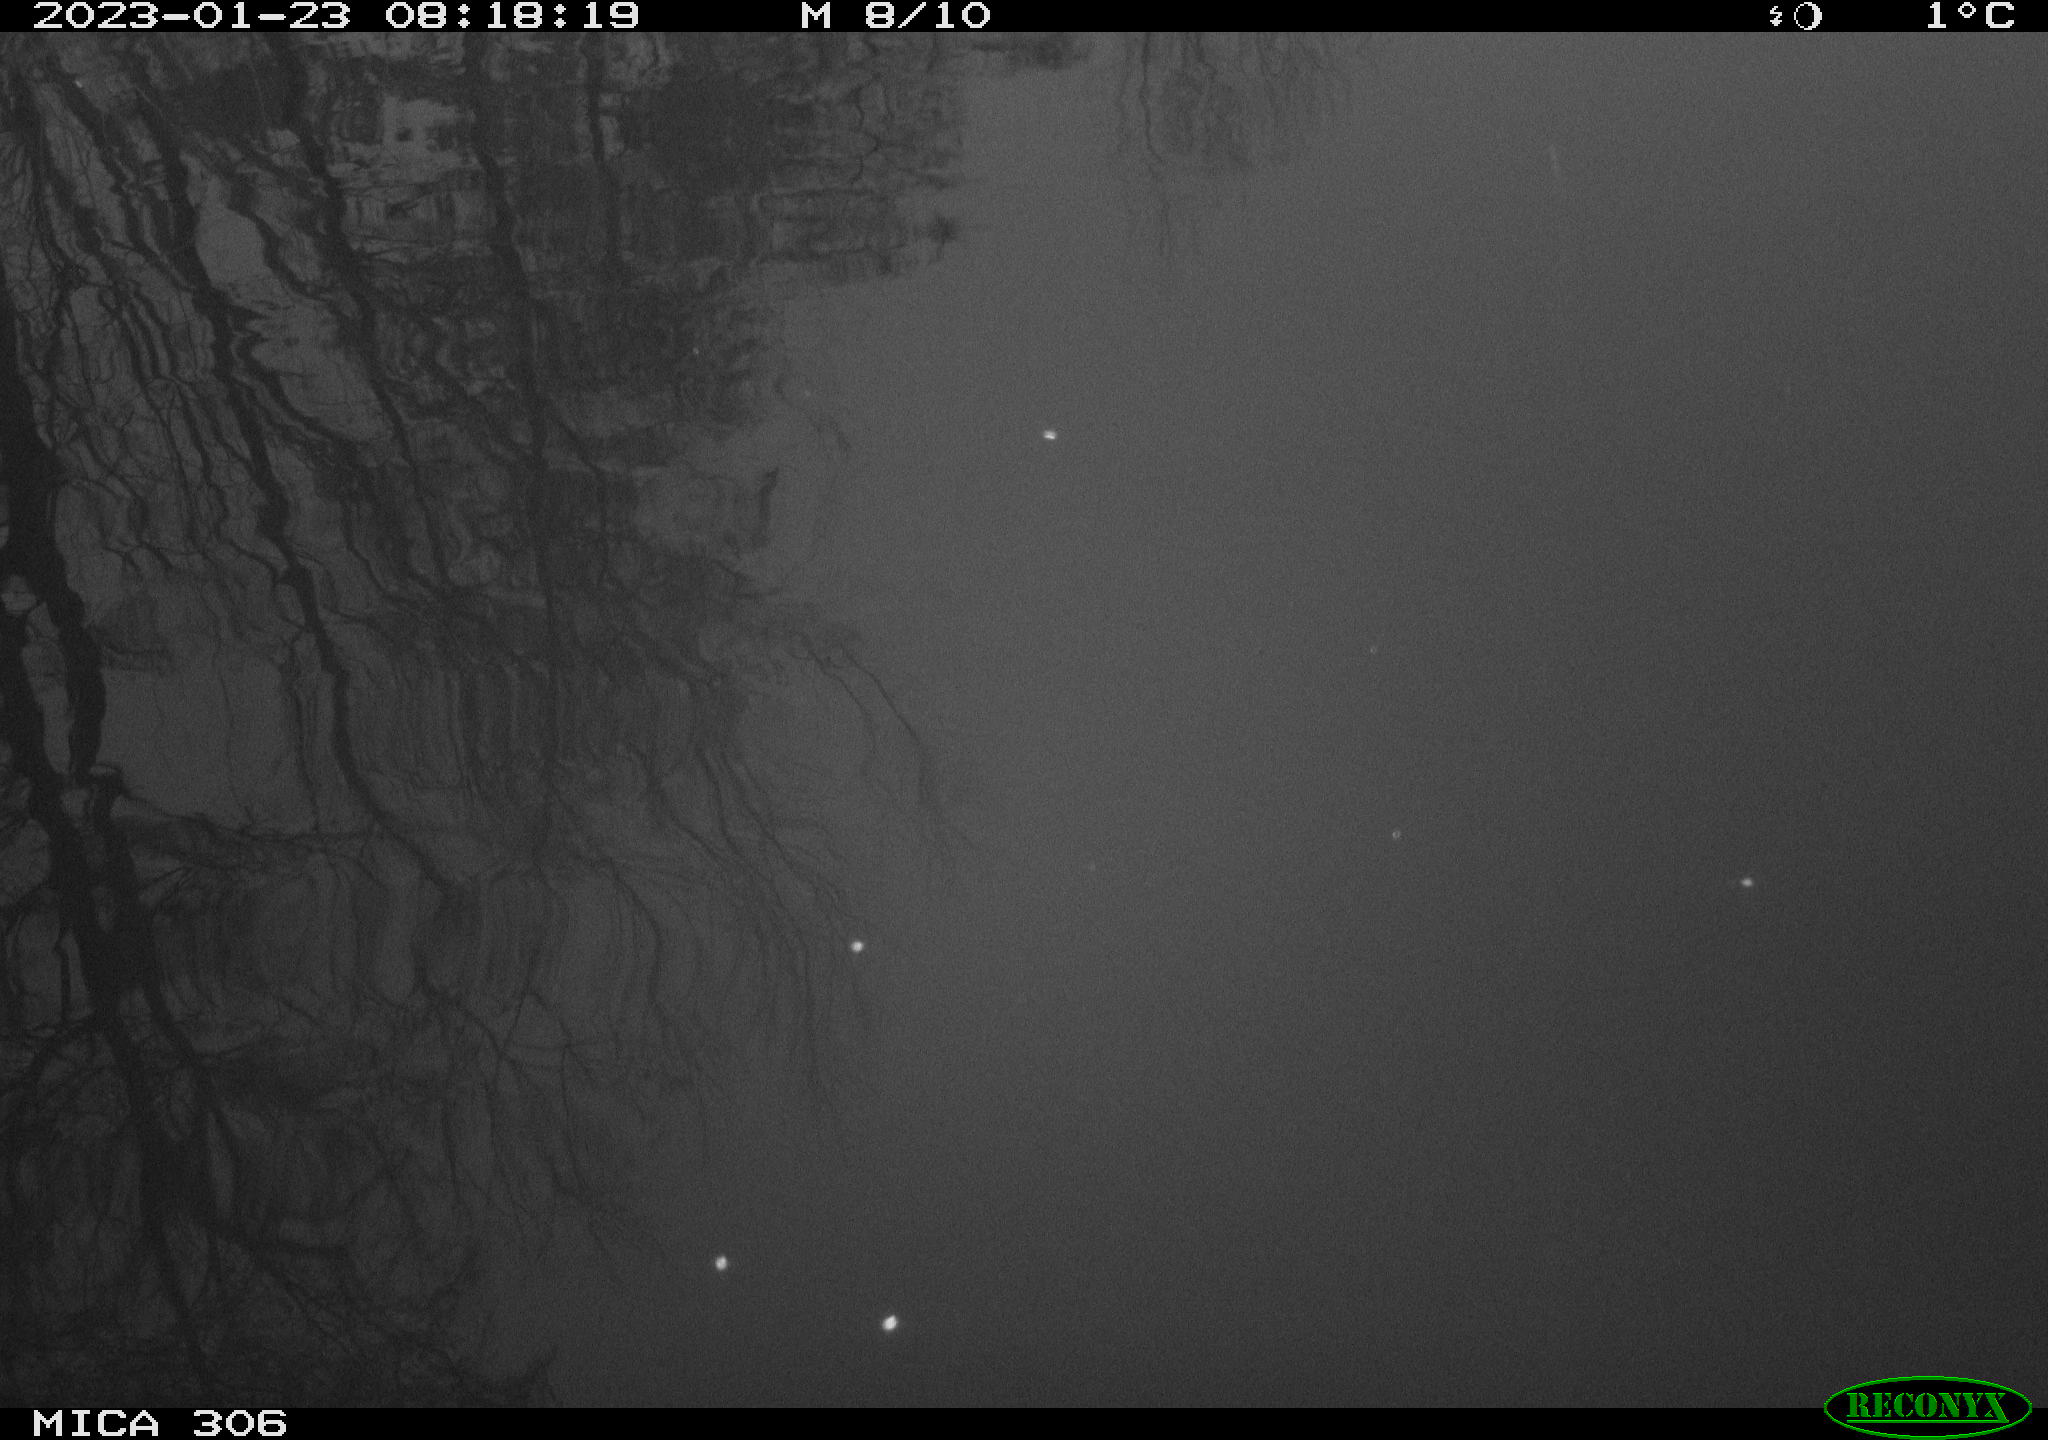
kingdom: Animalia
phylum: Chordata
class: Aves
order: Anseriformes
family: Anatidae
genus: Anas
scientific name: Anas
